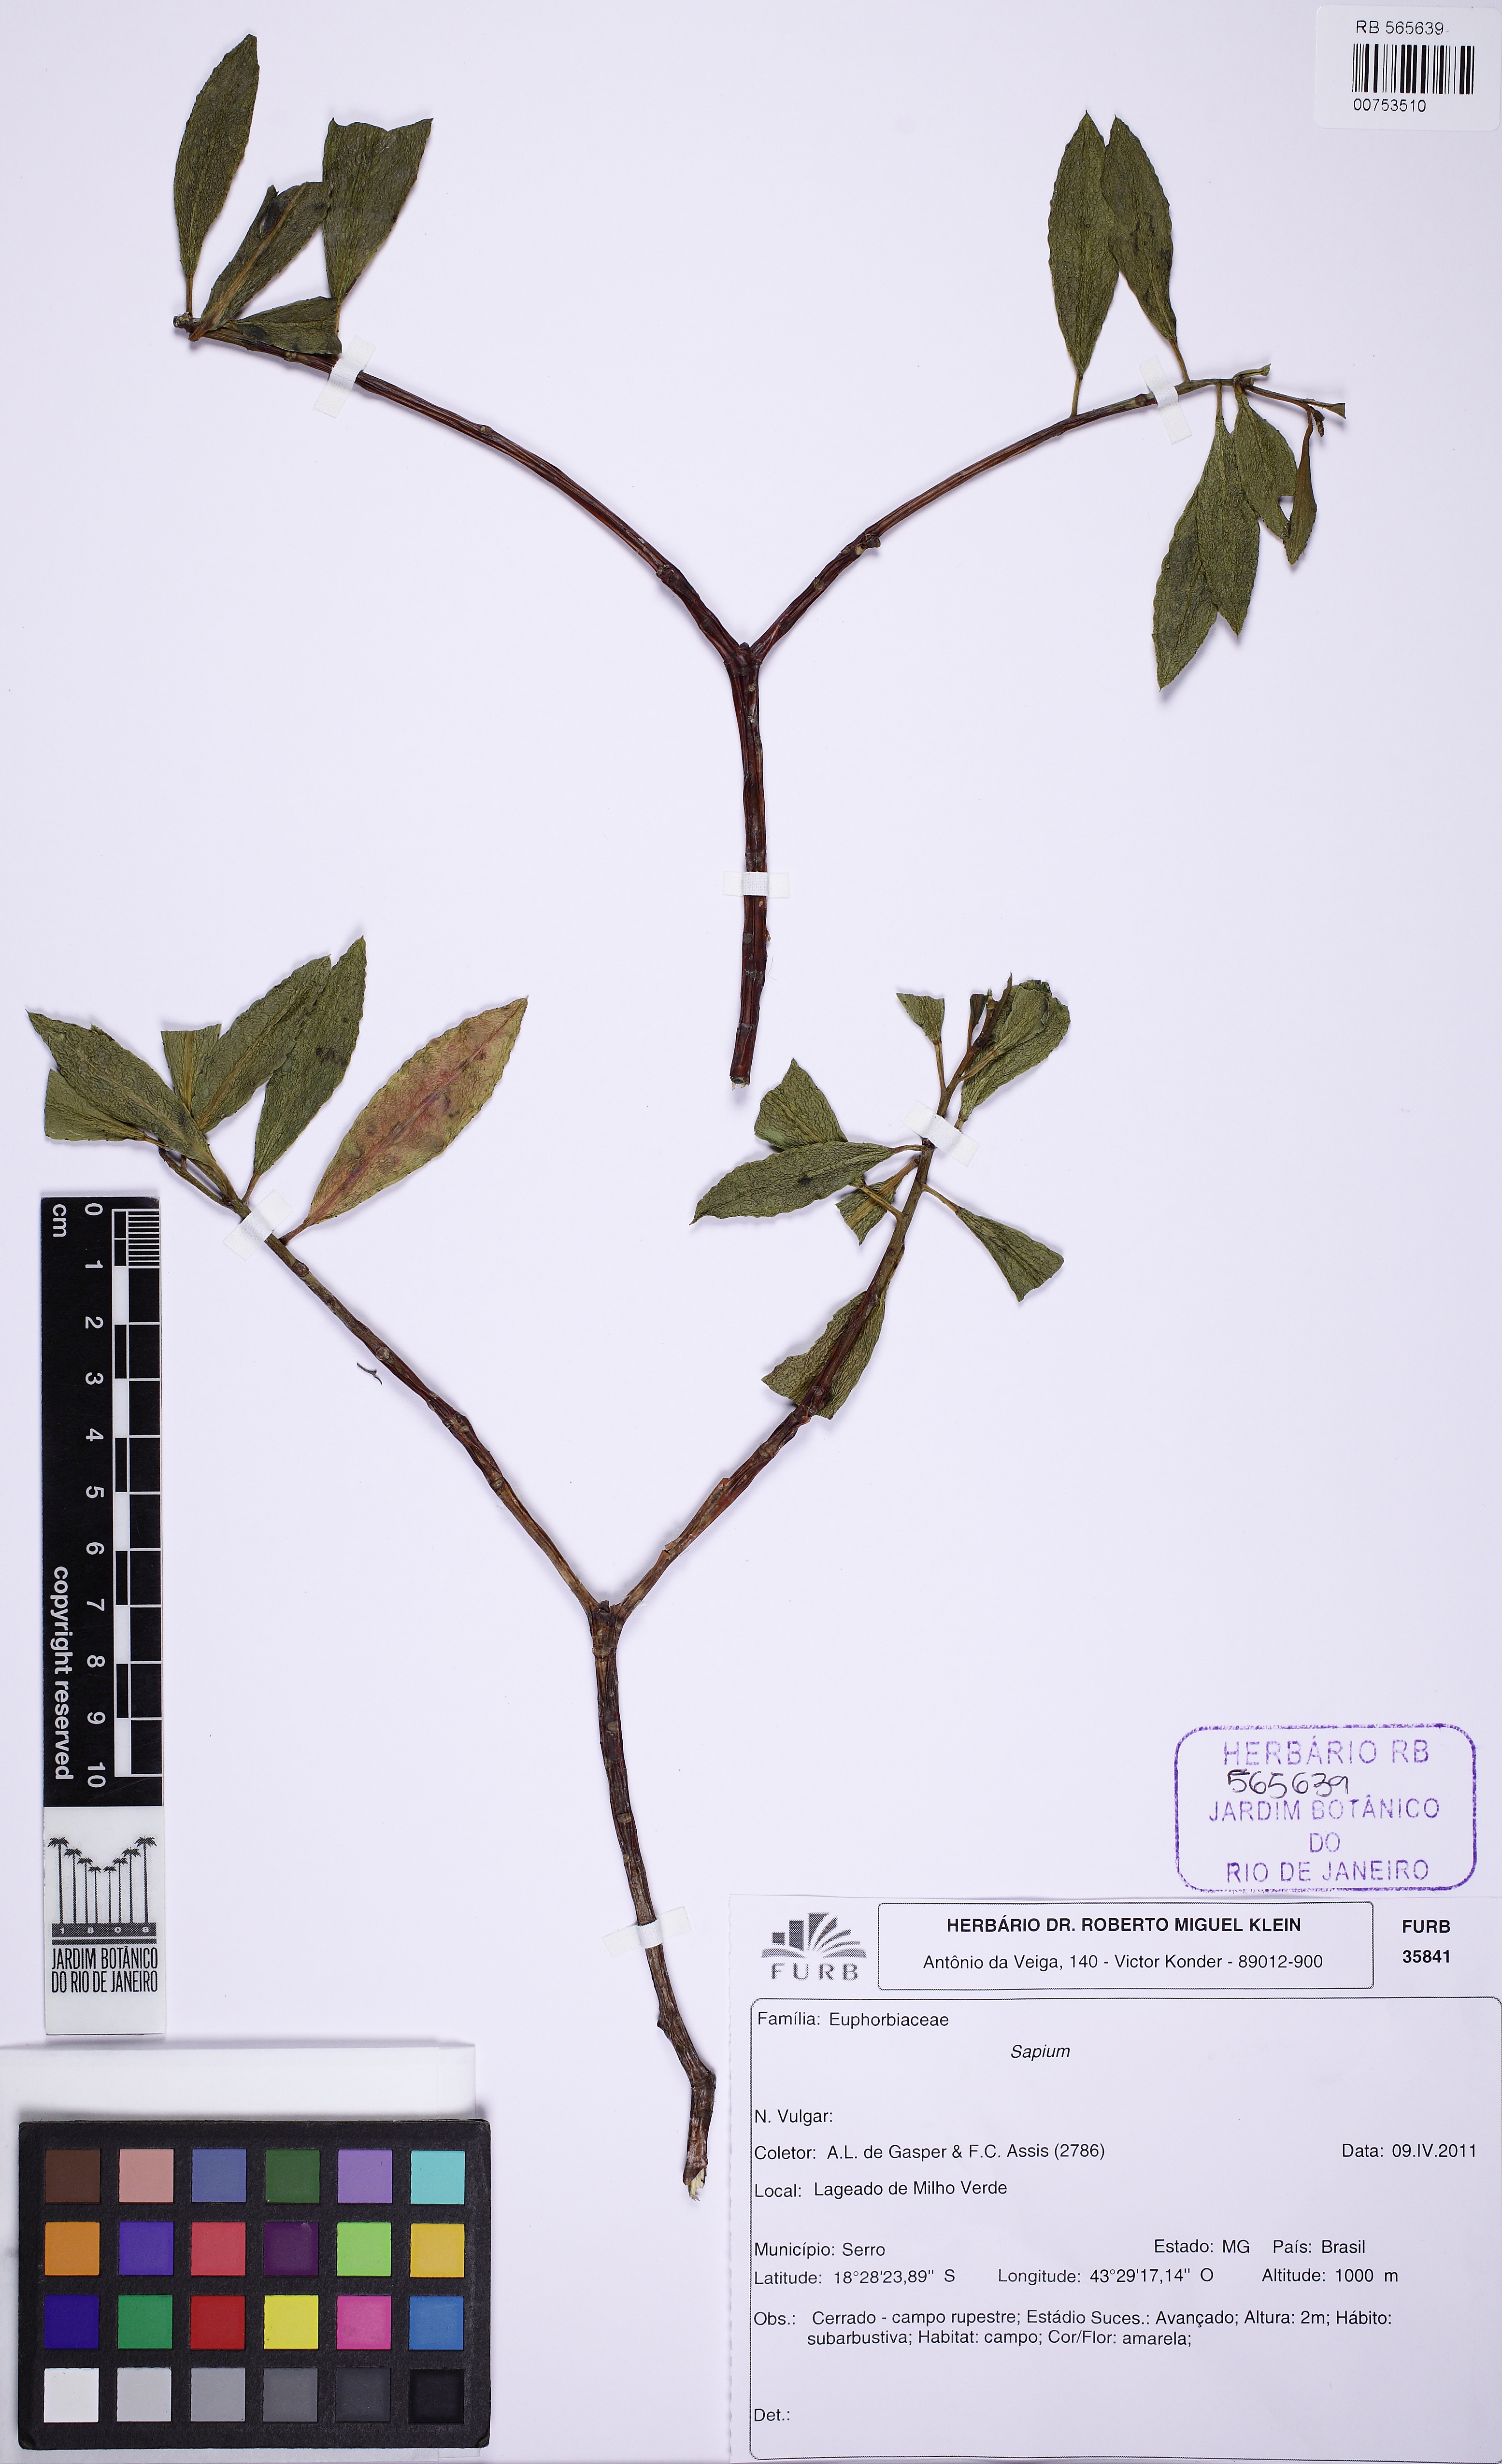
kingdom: Plantae
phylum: Tracheophyta
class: Magnoliopsida
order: Malpighiales
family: Euphorbiaceae
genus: Stillingia
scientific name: Stillingia
